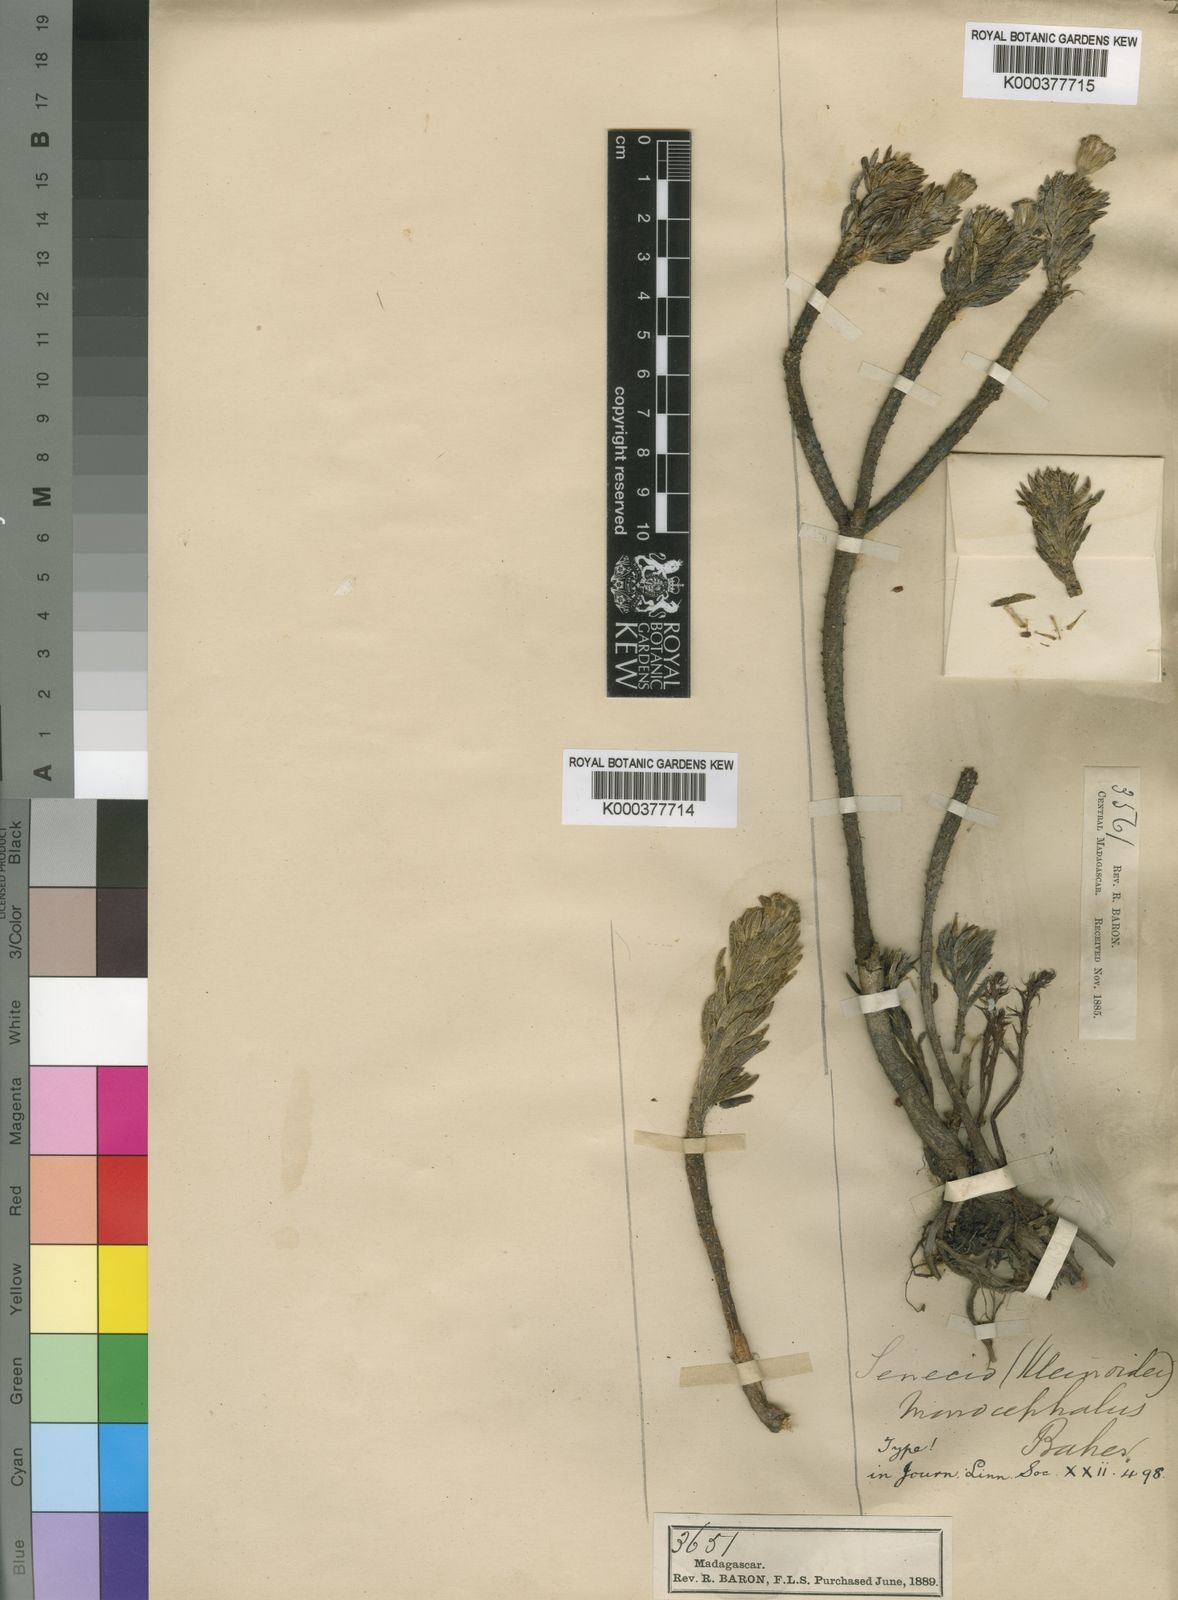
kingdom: Plantae
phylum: Tracheophyta
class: Magnoliopsida
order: Asterales
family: Asteraceae
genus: Kleinia
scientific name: Kleinia
